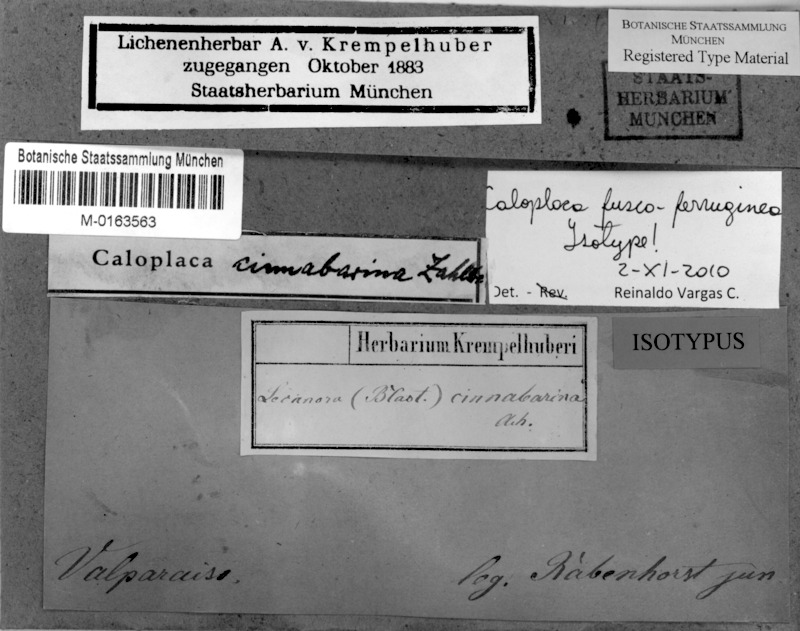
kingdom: Fungi
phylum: Ascomycota
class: Lecanoromycetes
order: Teloschistales
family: Teloschistaceae
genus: Caloplaca
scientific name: Caloplaca
